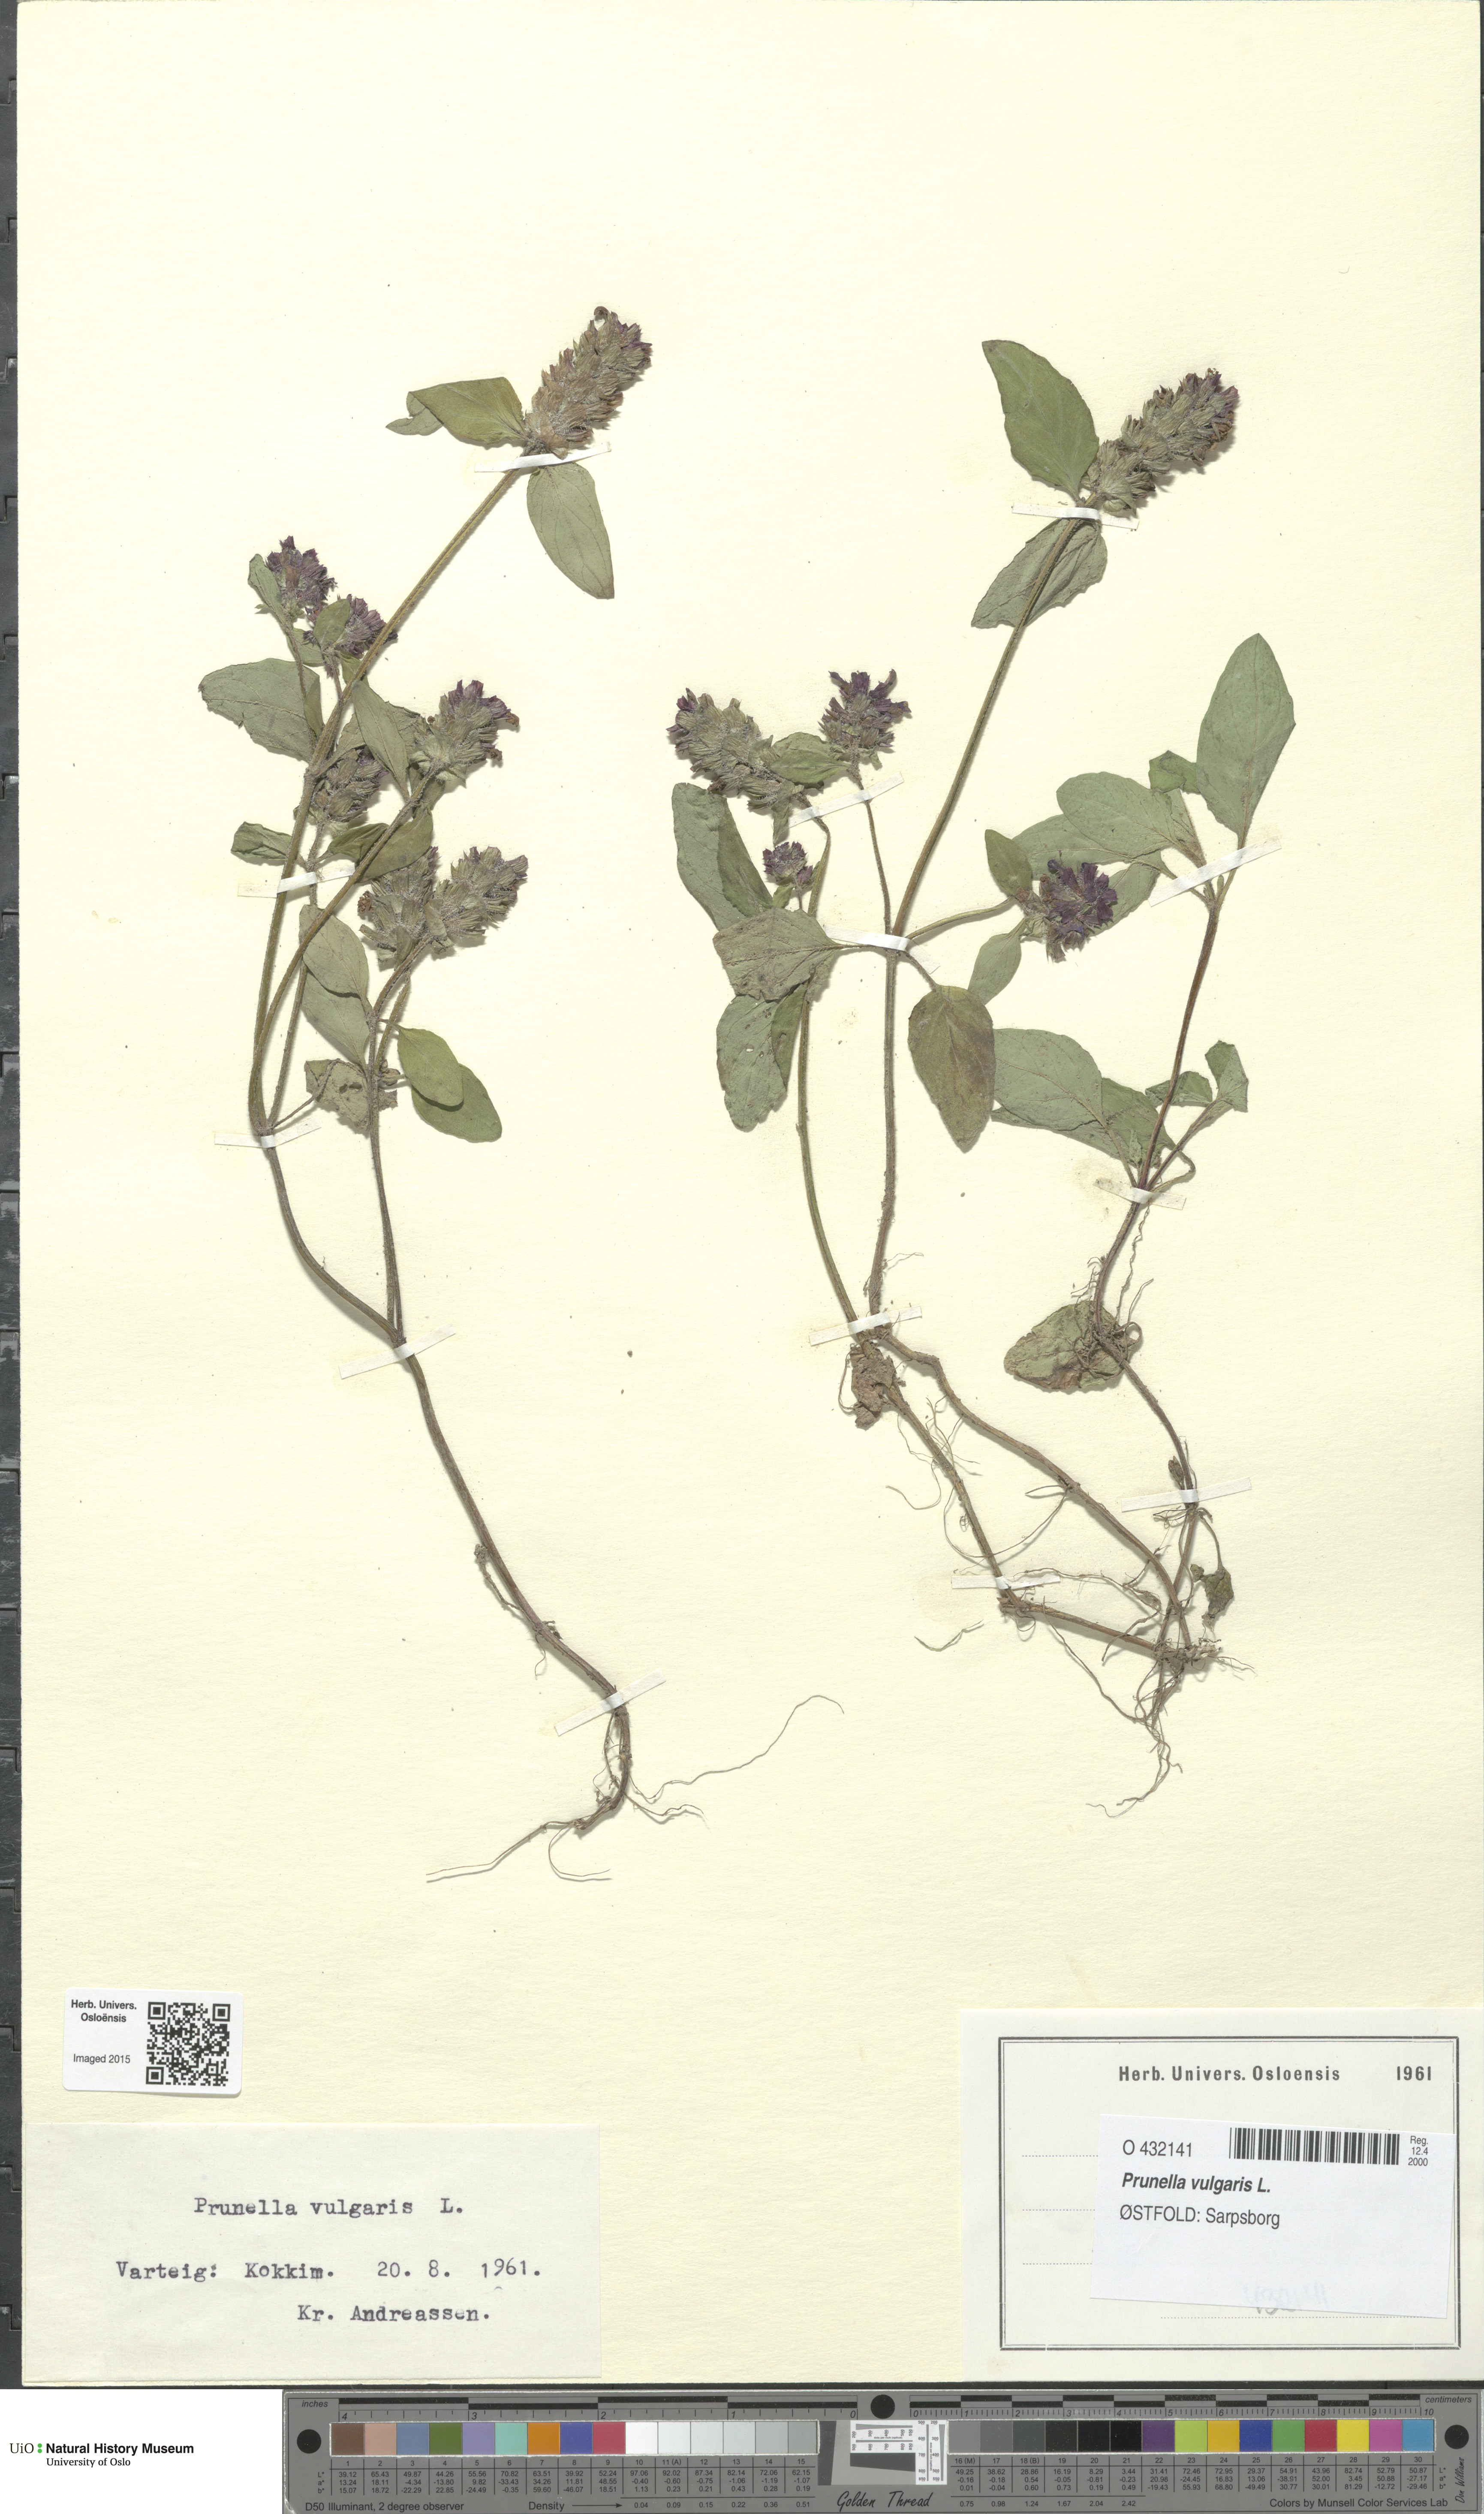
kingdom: Plantae
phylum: Tracheophyta
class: Magnoliopsida
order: Lamiales
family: Lamiaceae
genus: Prunella
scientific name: Prunella vulgaris
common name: Heal-all
